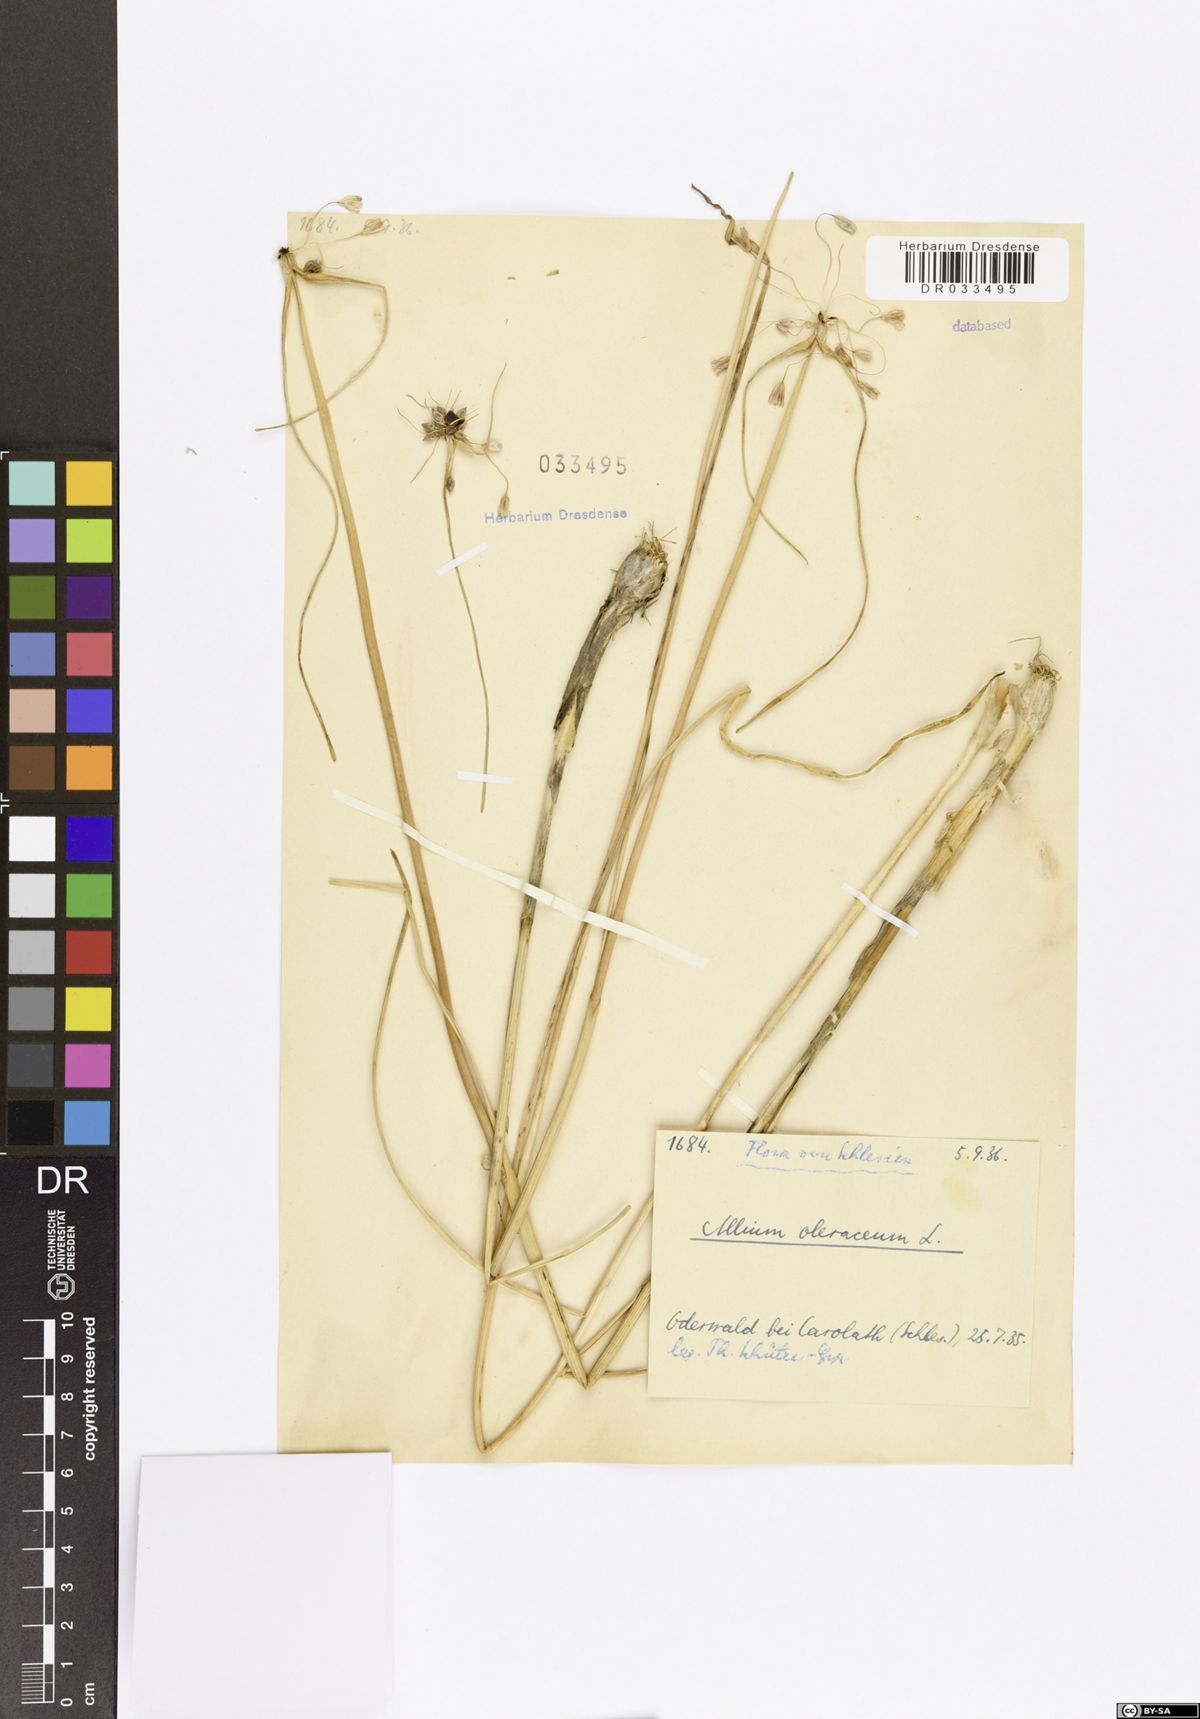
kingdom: Plantae
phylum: Tracheophyta
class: Liliopsida
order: Asparagales
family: Amaryllidaceae
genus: Allium
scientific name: Allium oleraceum
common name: Field garlic
